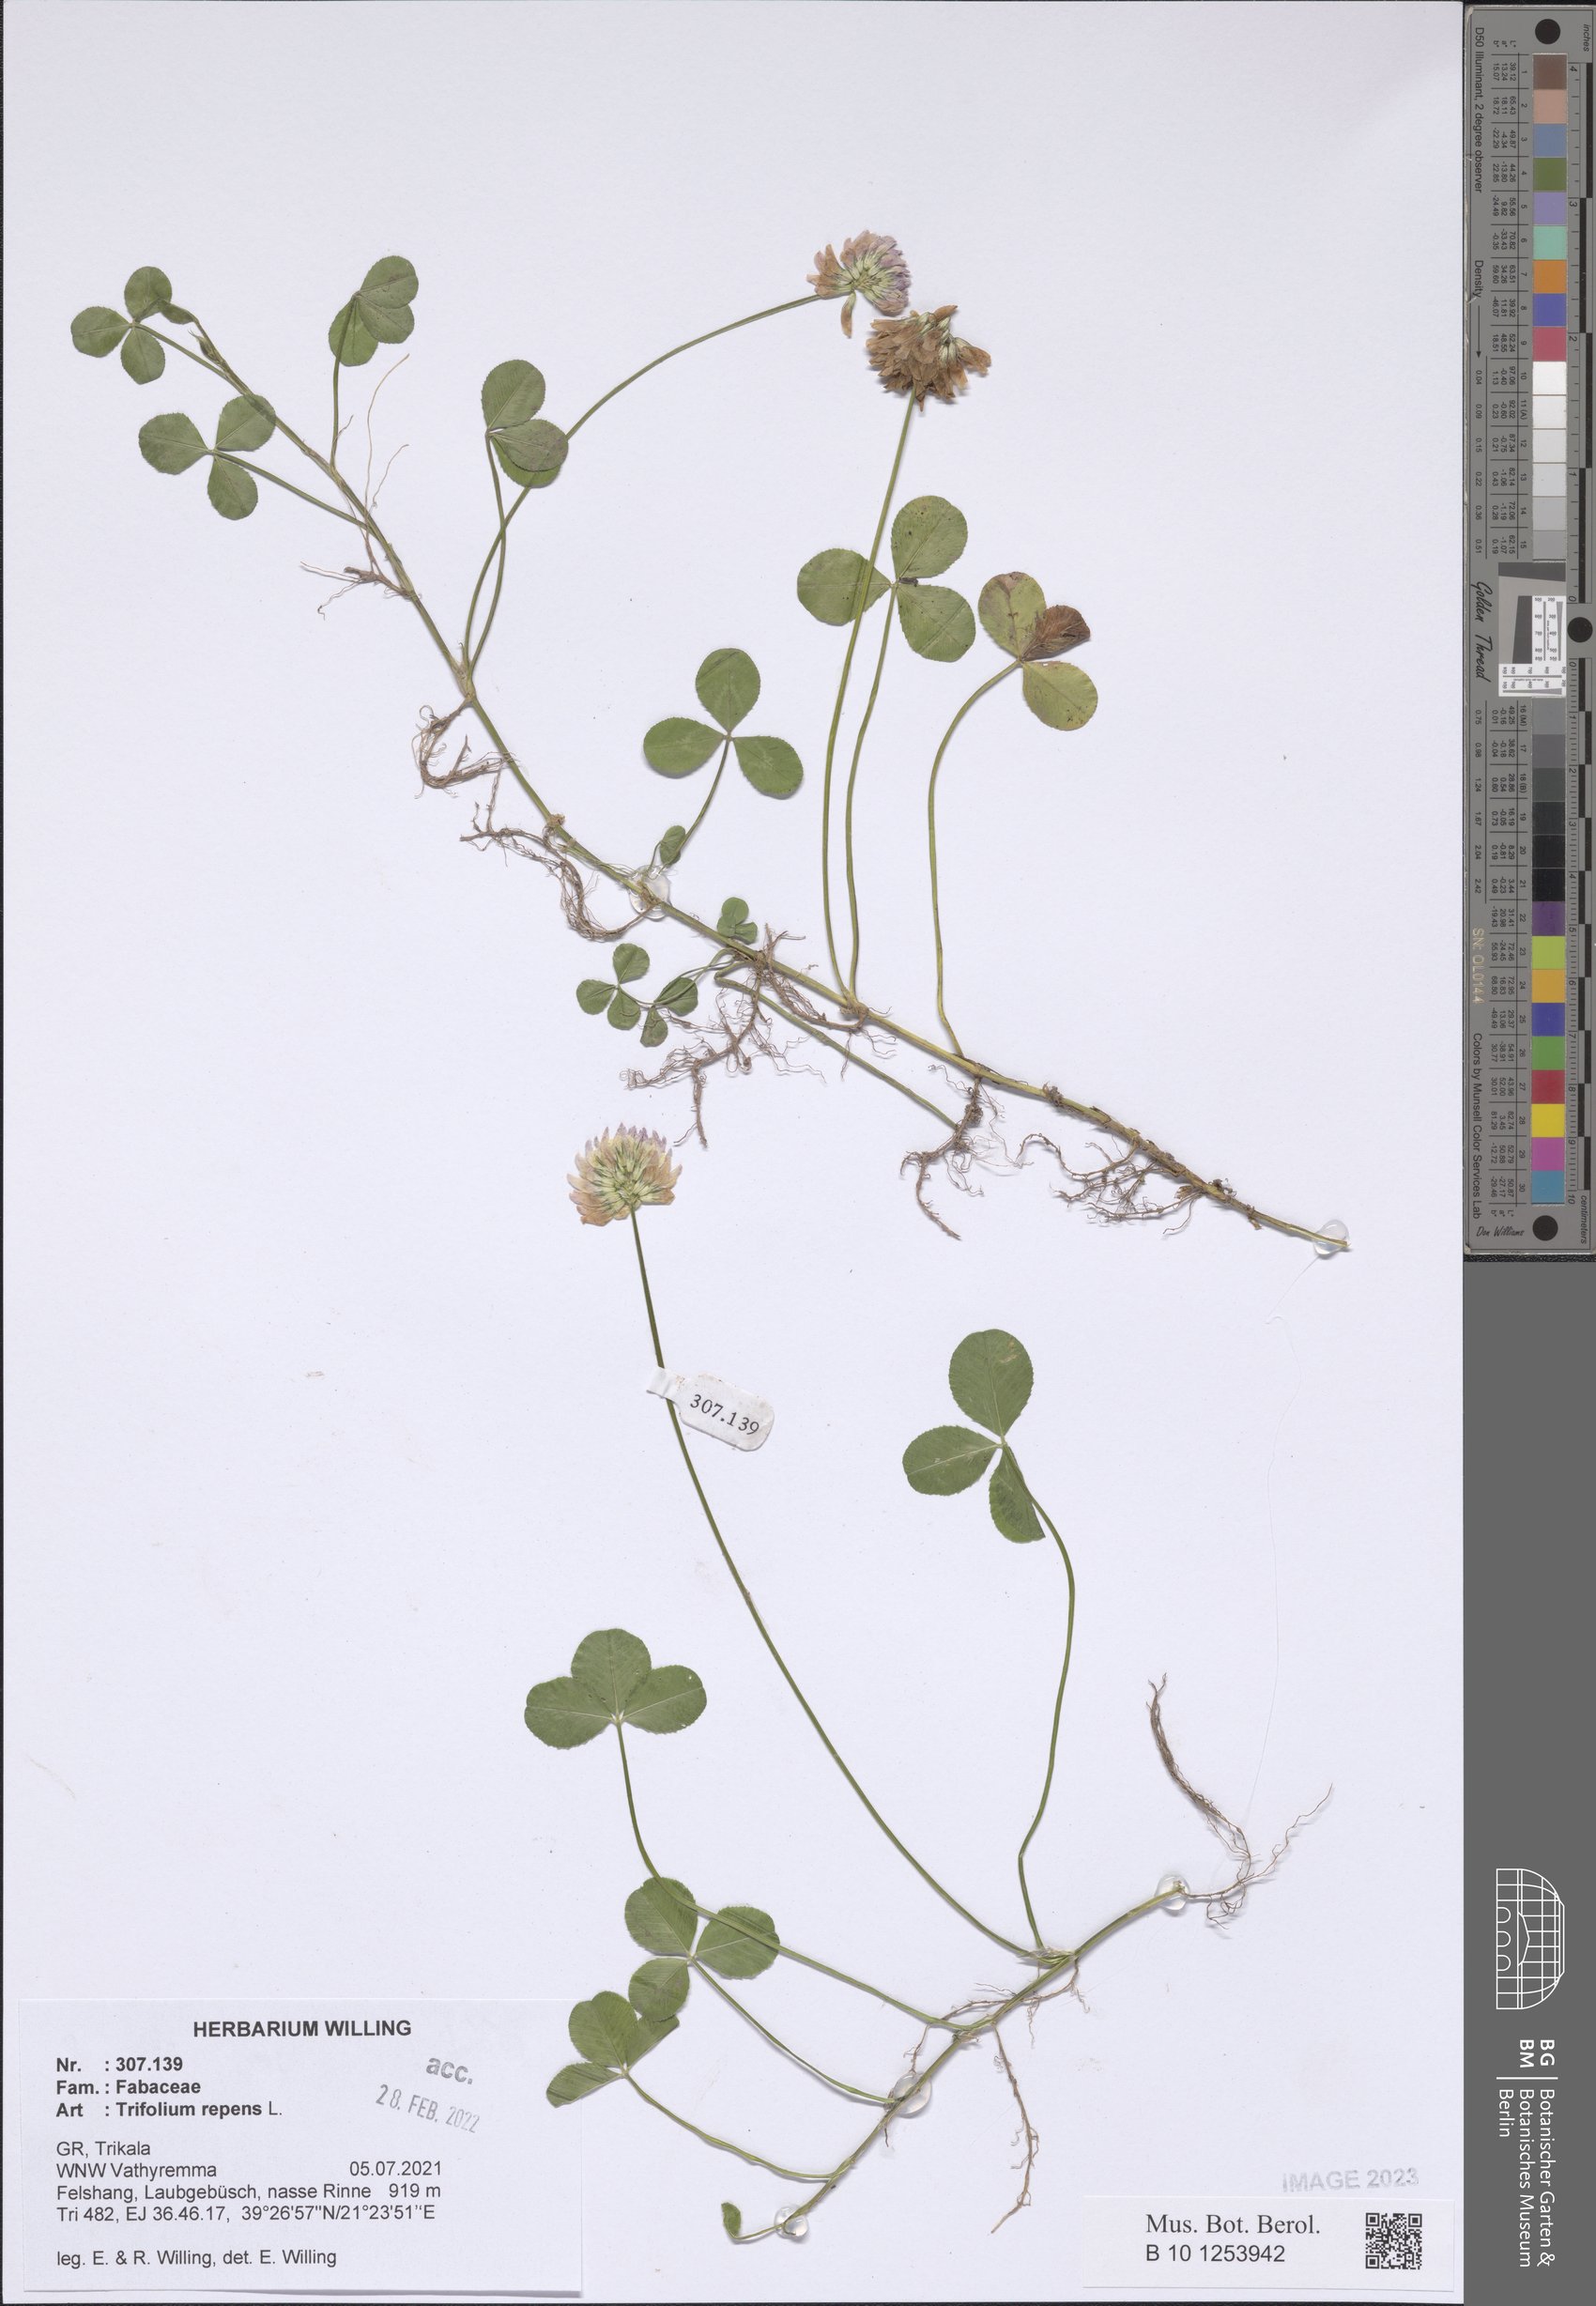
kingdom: Plantae
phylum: Tracheophyta
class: Magnoliopsida
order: Fabales
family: Fabaceae
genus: Trifolium
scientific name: Trifolium repens
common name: White clover
